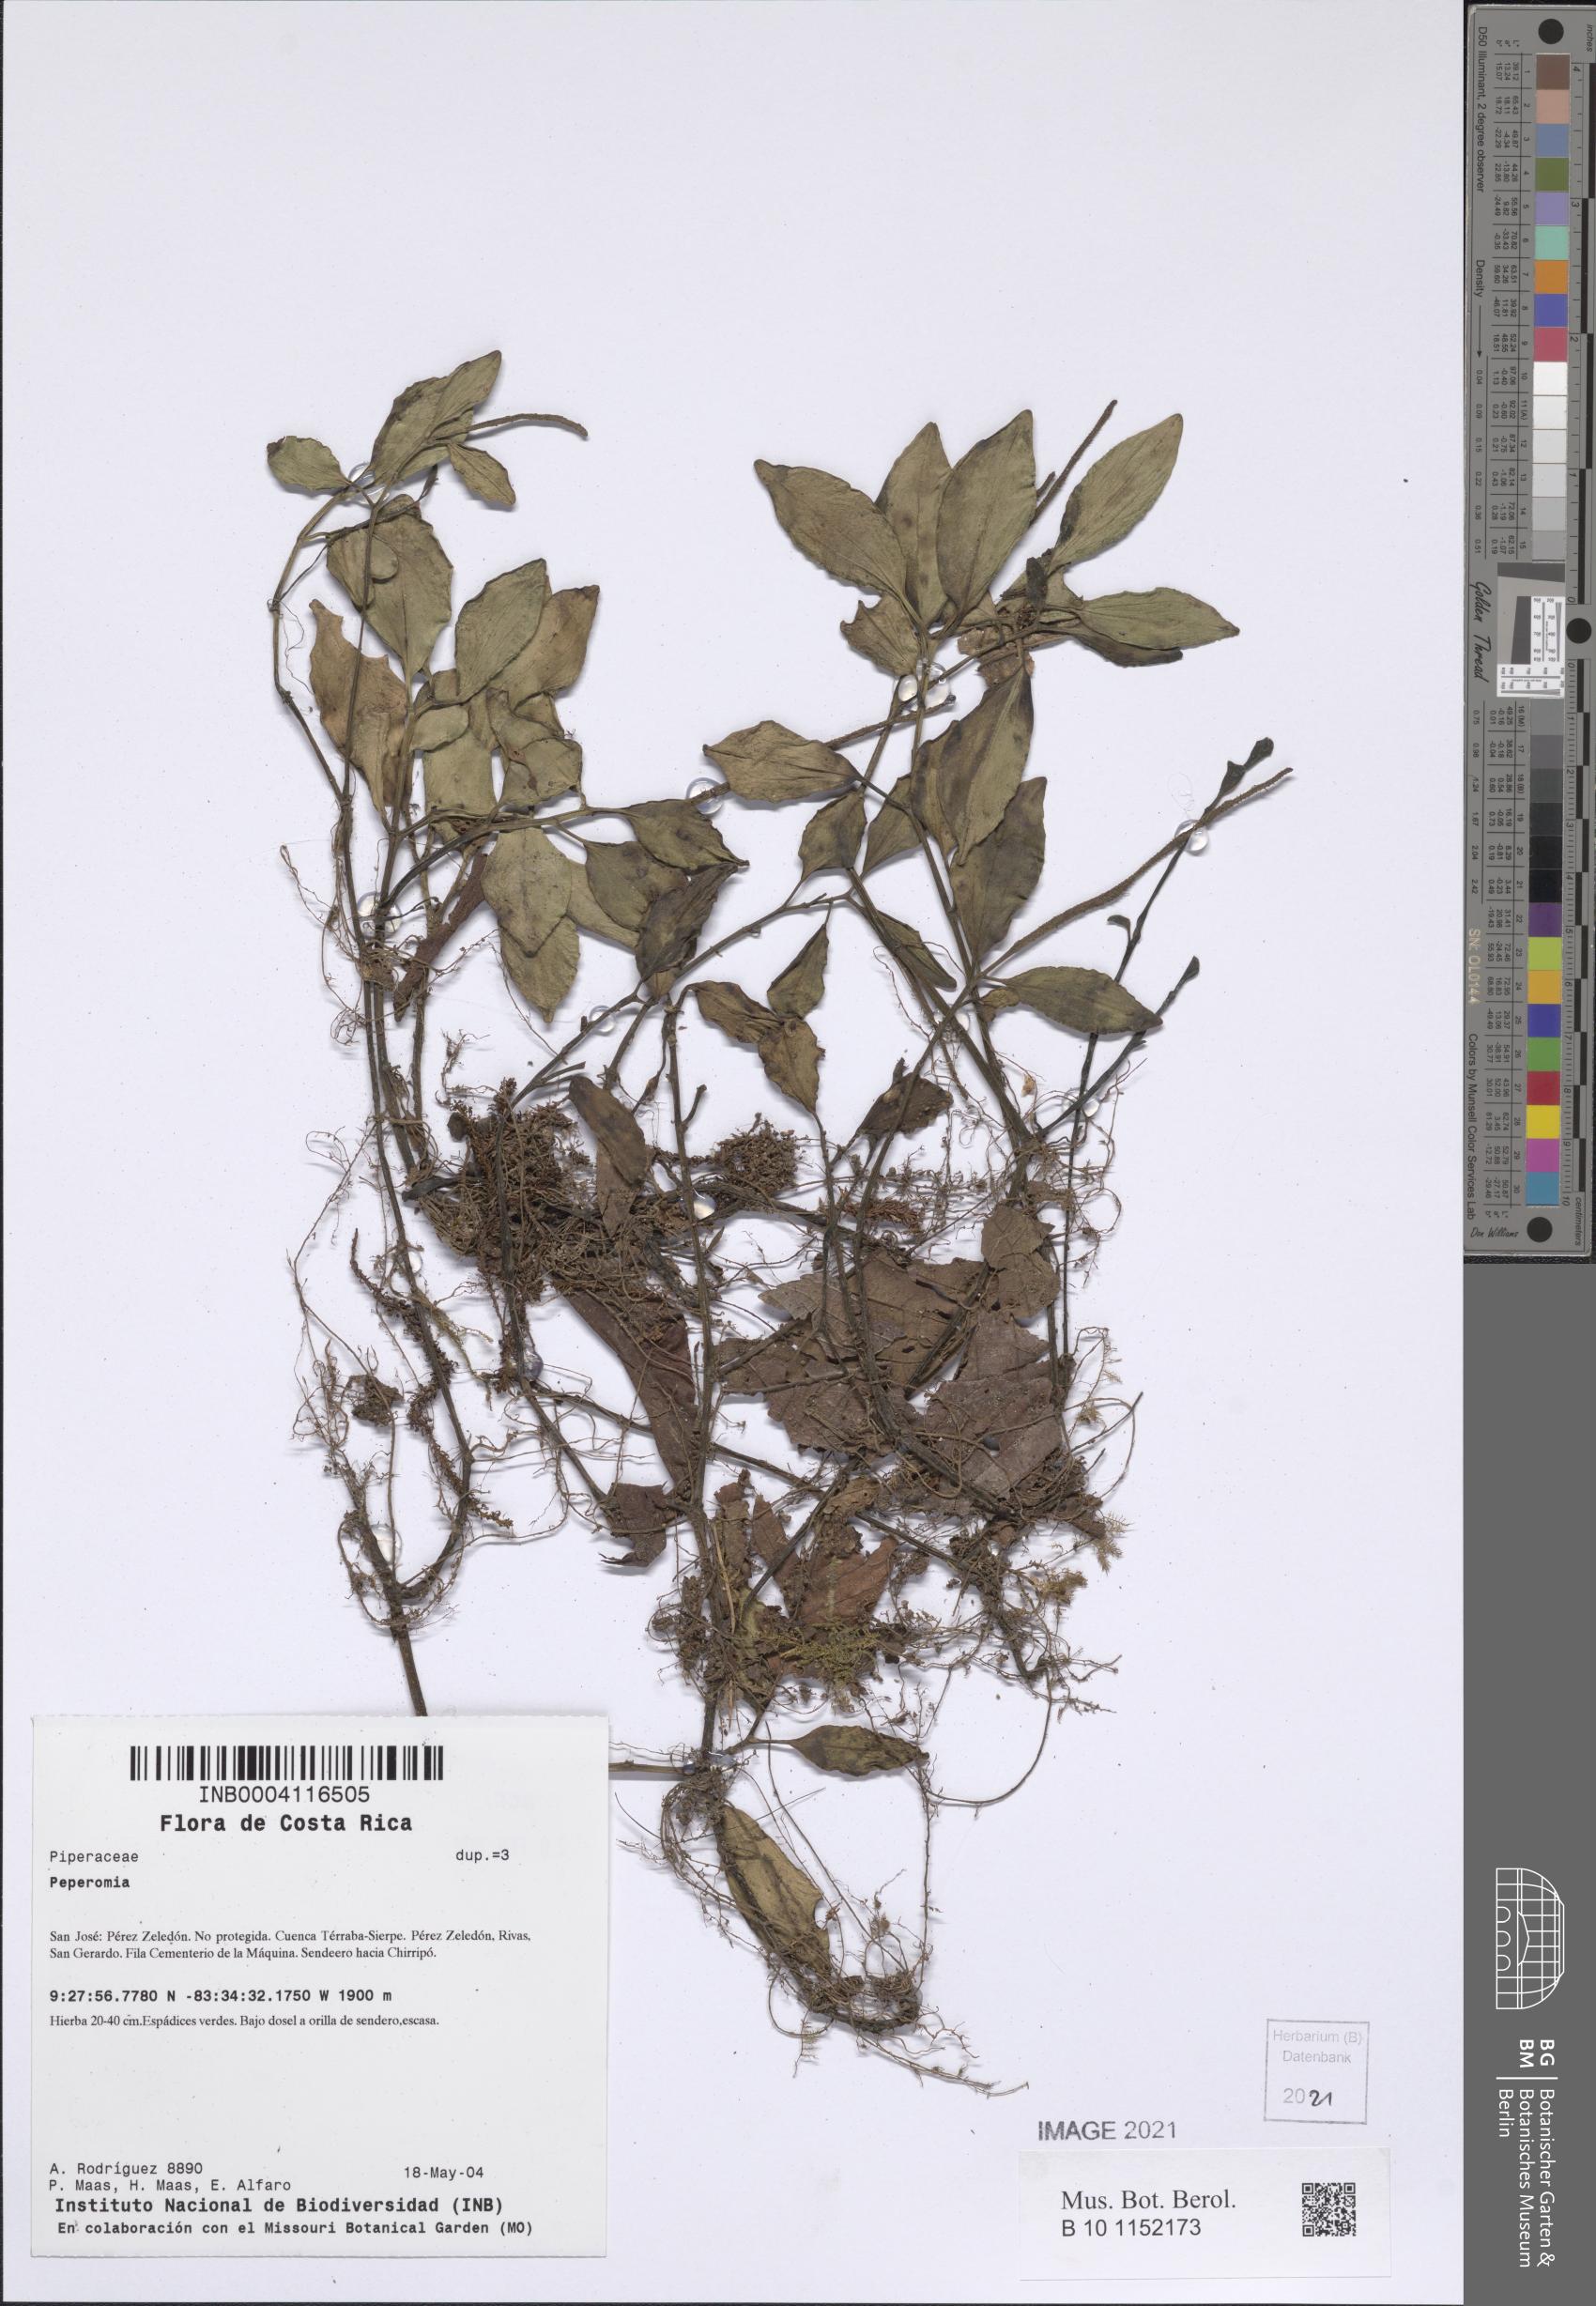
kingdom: Plantae
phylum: Tracheophyta
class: Magnoliopsida
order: Piperales
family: Piperaceae
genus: Peperomia
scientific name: Peperomia san-joseana
